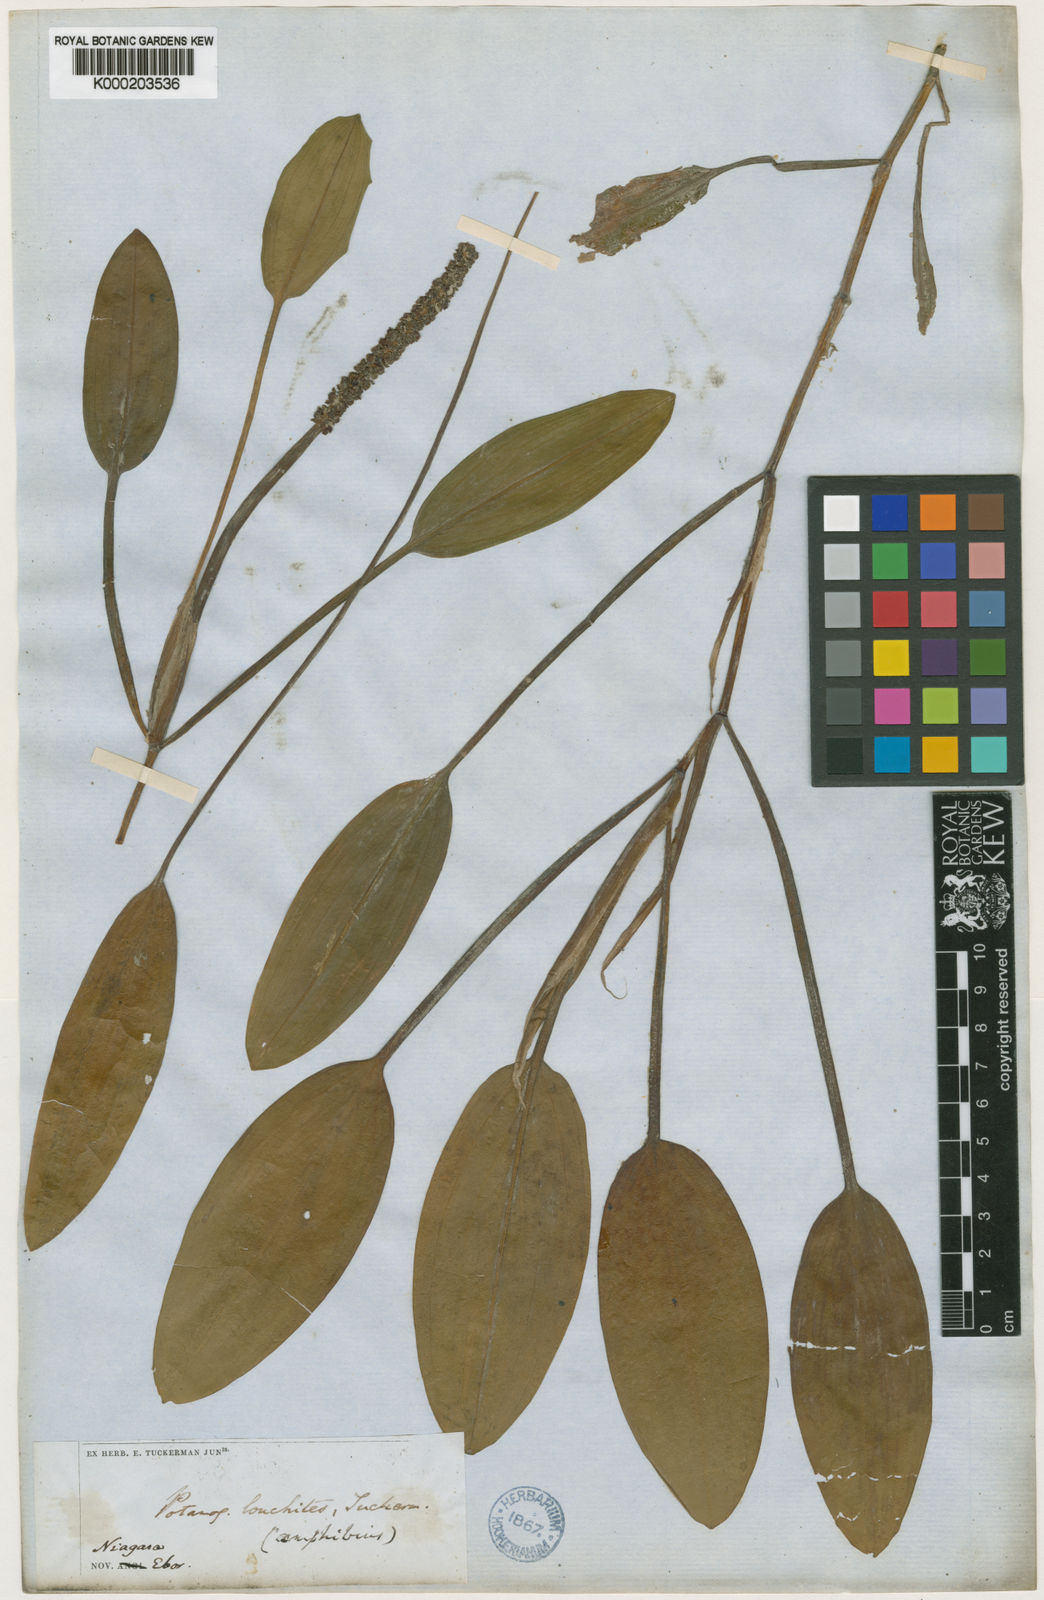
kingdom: Plantae
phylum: Tracheophyta
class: Liliopsida
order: Alismatales
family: Potamogetonaceae
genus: Potamogeton
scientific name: Potamogeton nodosus
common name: Loddon pondweed
